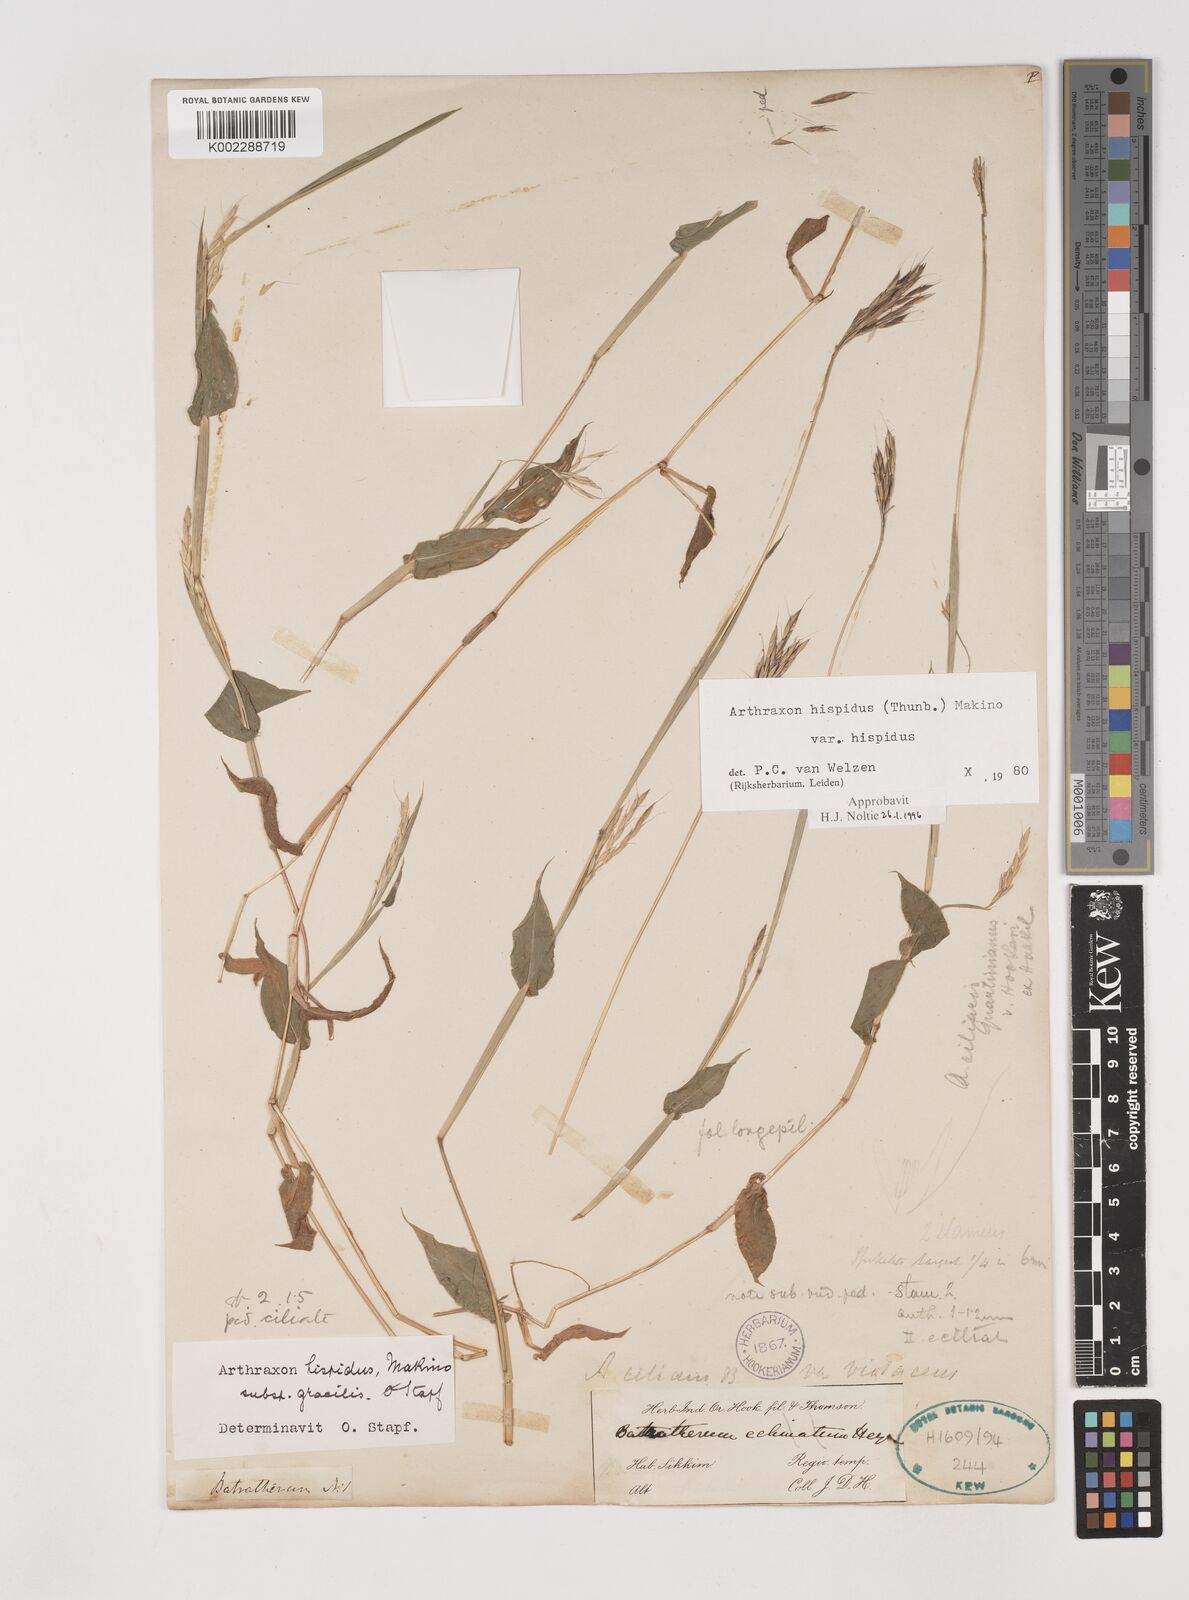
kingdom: Plantae
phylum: Tracheophyta
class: Liliopsida
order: Poales
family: Poaceae
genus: Arthraxon
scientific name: Arthraxon hispidus
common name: Small carpgrass
